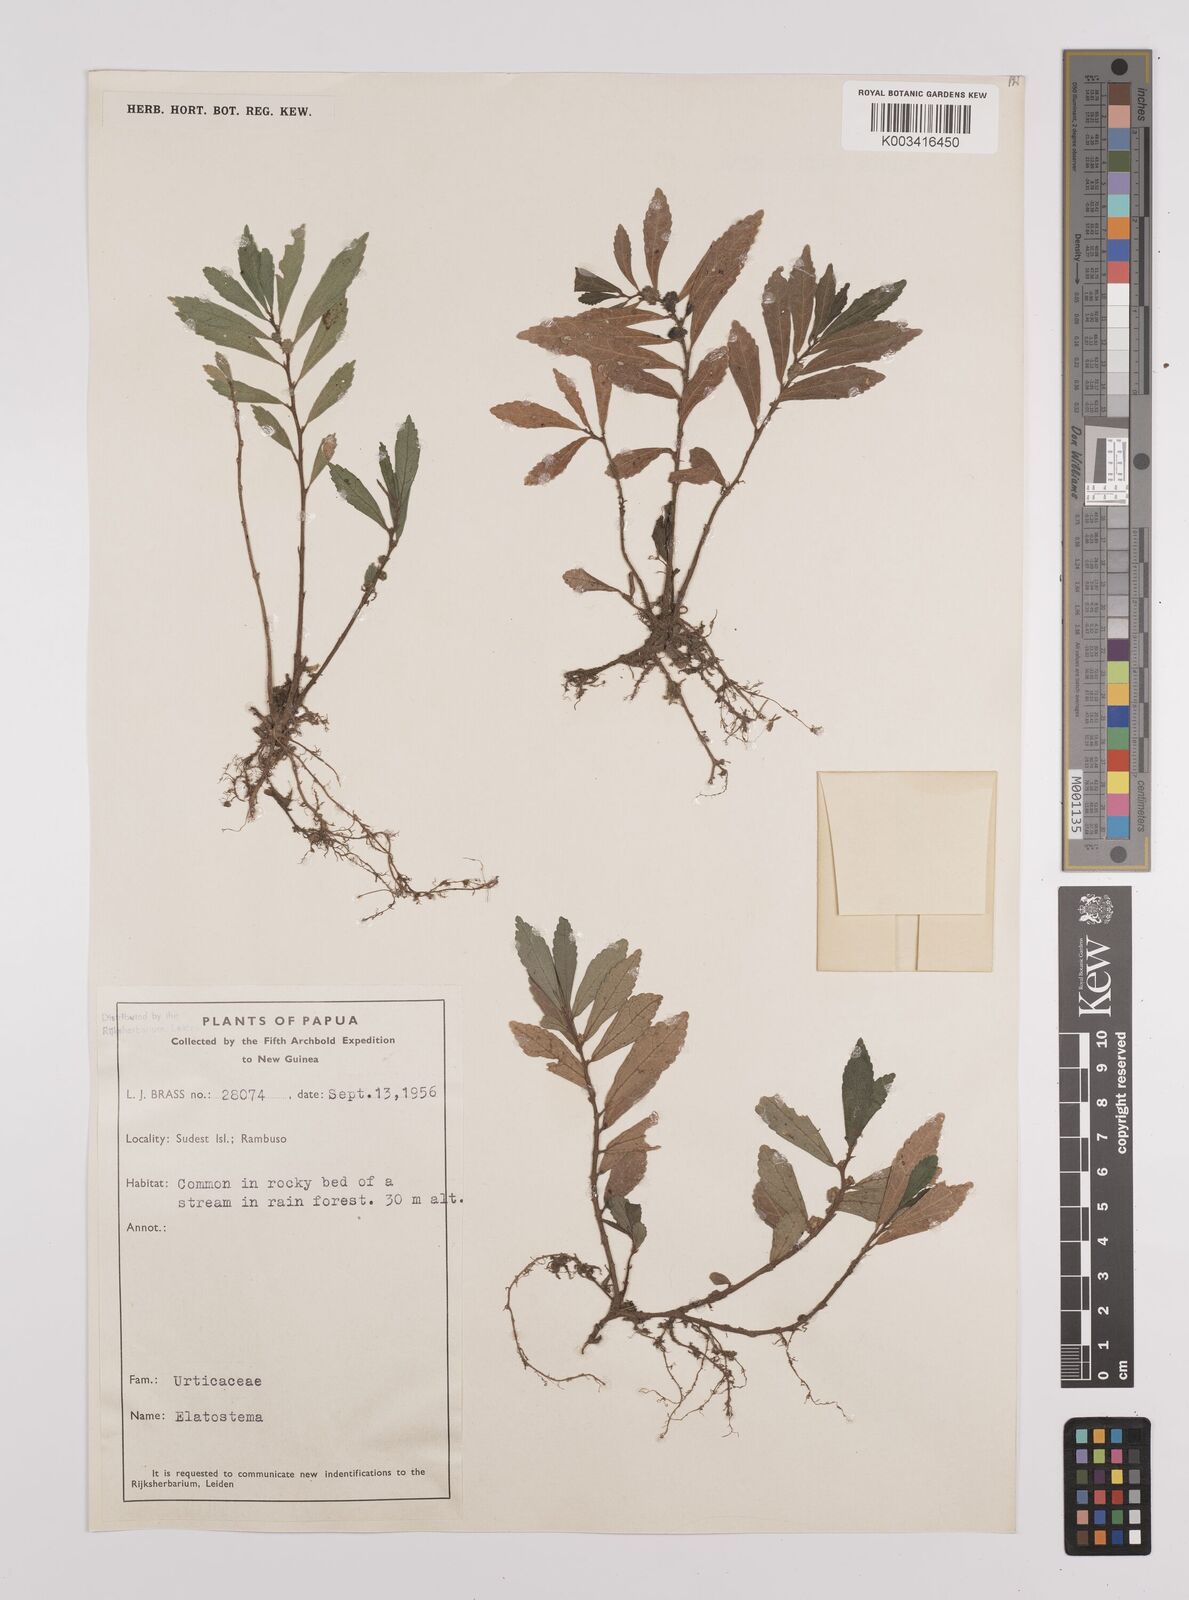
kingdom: Plantae
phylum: Tracheophyta
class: Magnoliopsida
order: Rosales
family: Urticaceae
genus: Elatostema
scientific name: Elatostema
